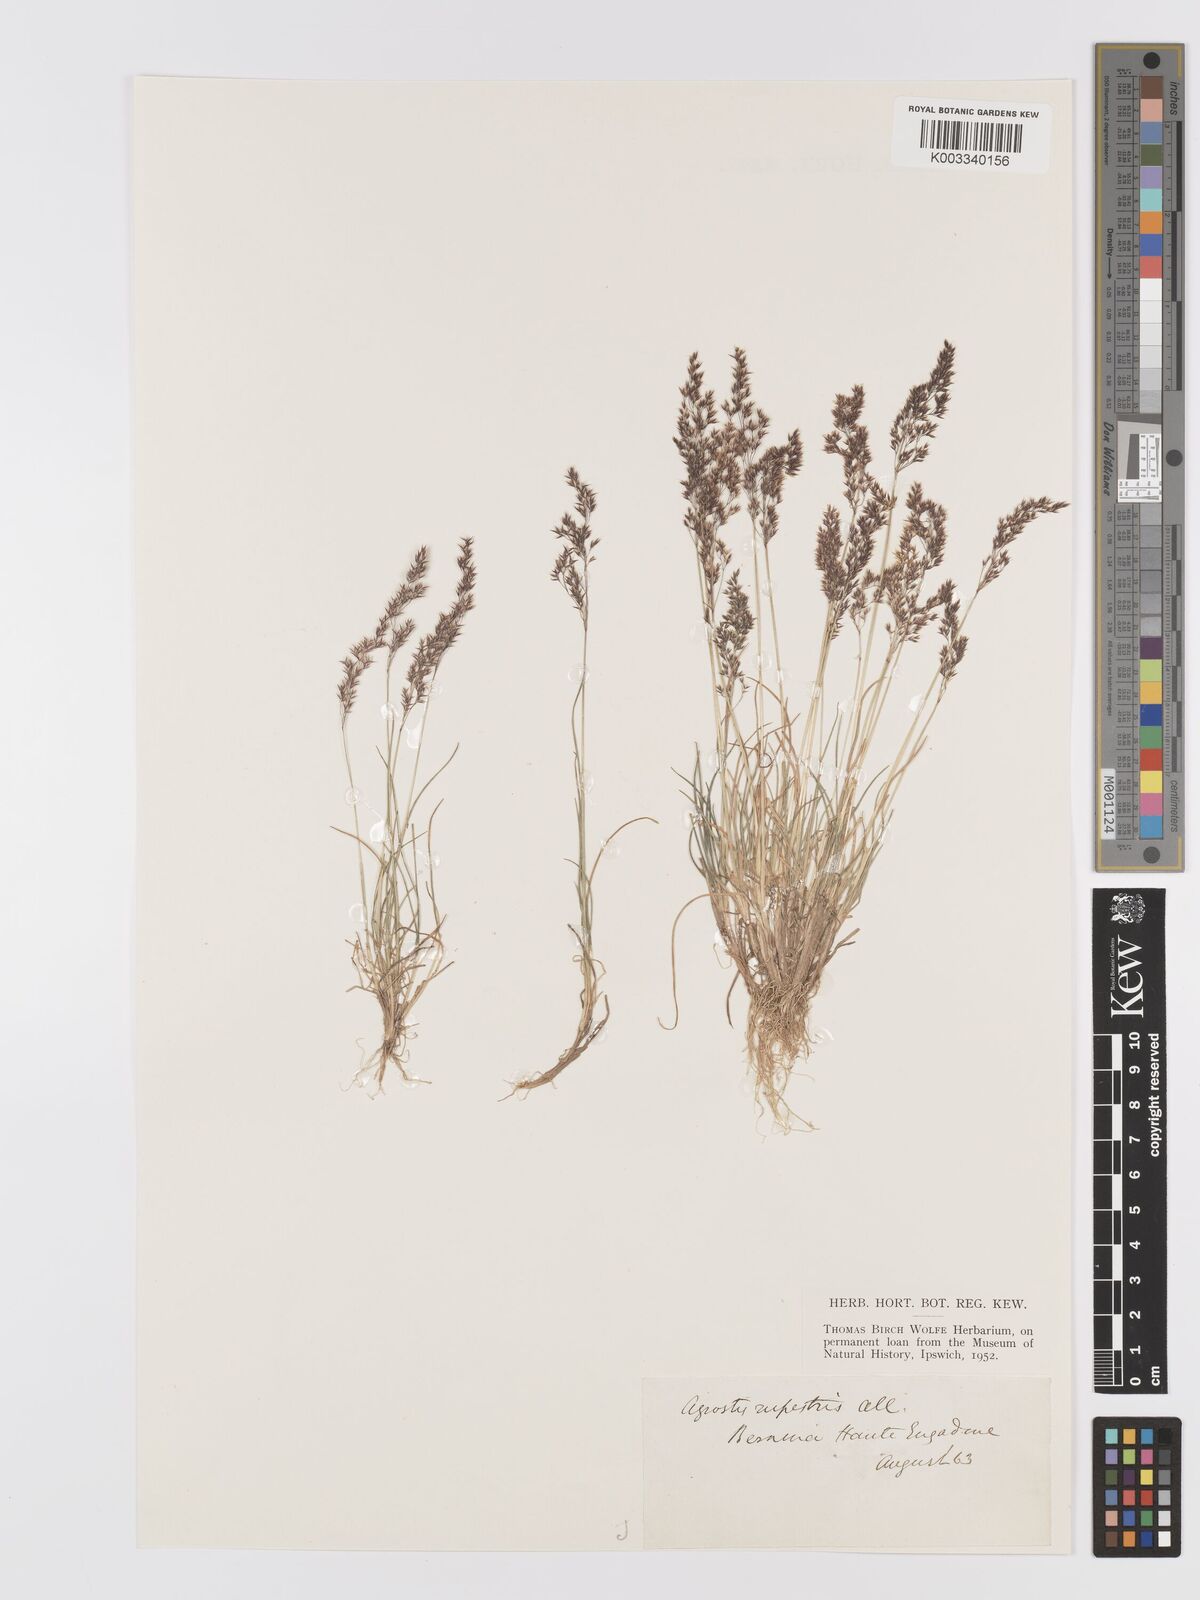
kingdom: Plantae
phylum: Tracheophyta
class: Liliopsida
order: Poales
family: Poaceae
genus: Agrostis
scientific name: Agrostis rupestris
